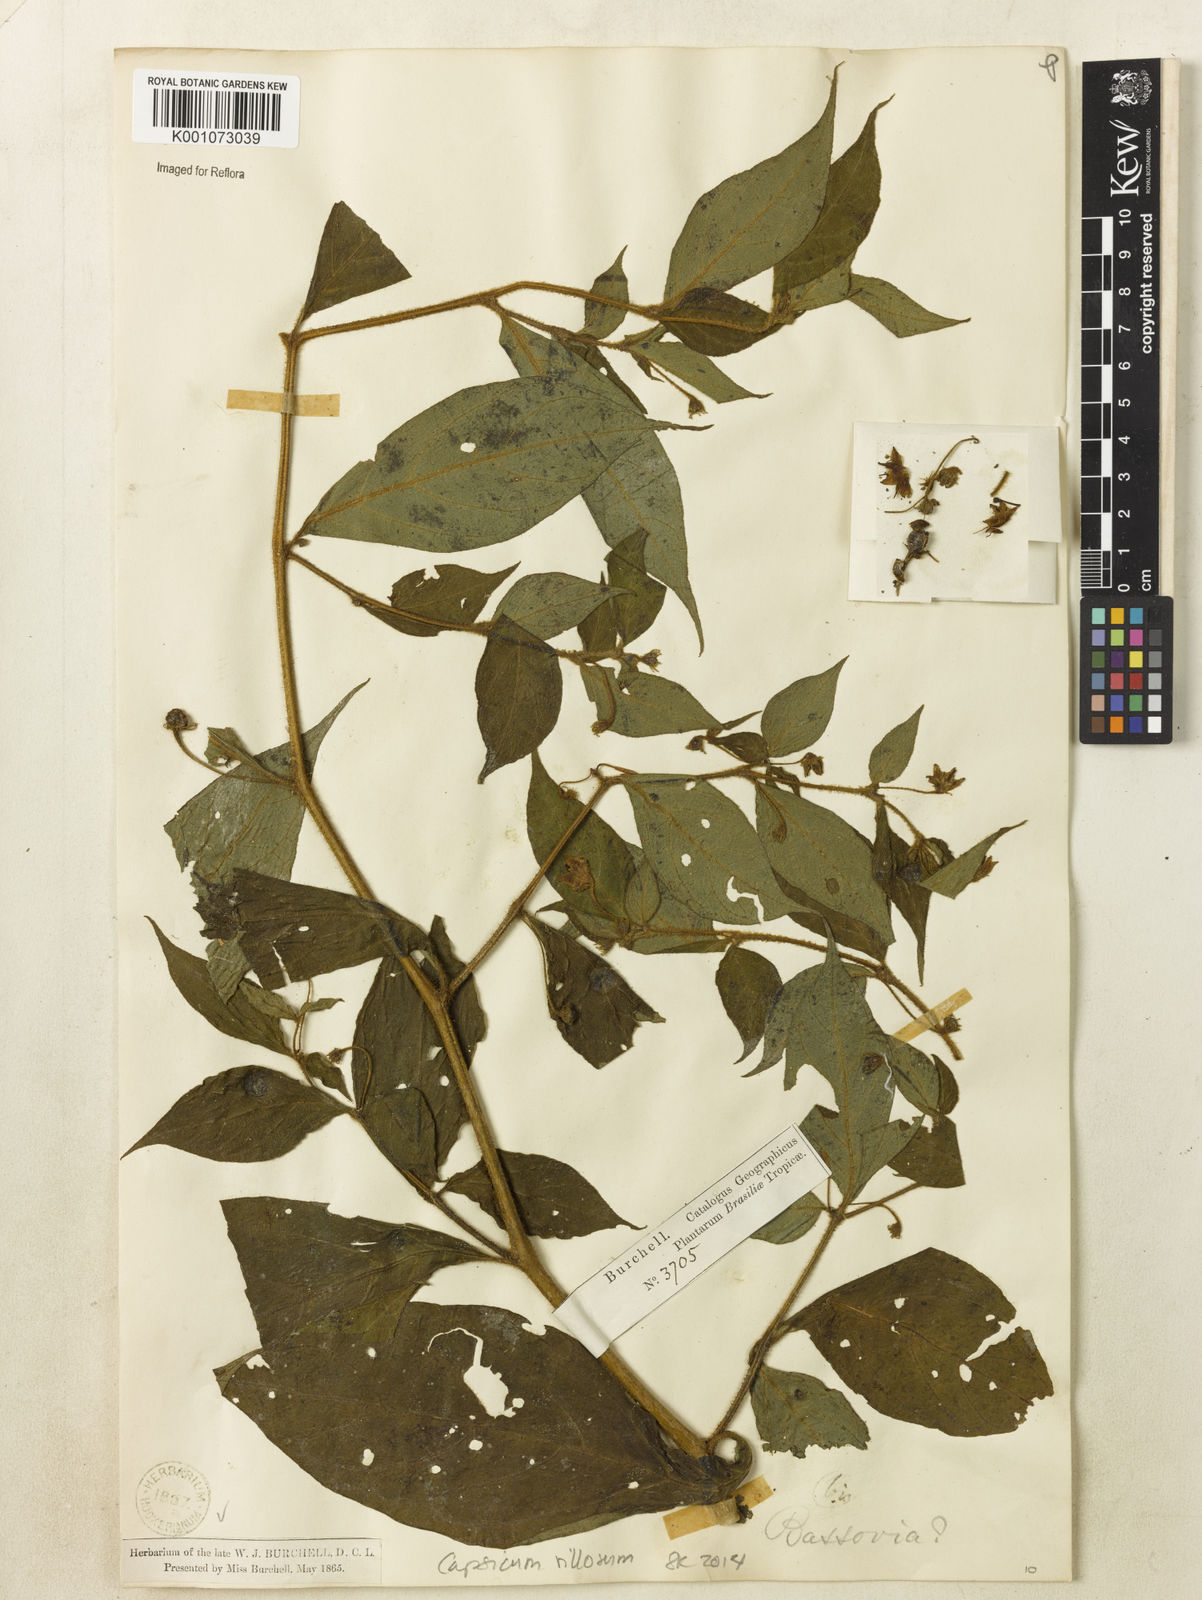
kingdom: Plantae
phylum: Tracheophyta
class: Magnoliopsida
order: Solanales
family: Solanaceae
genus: Capsicum
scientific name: Capsicum villosum
